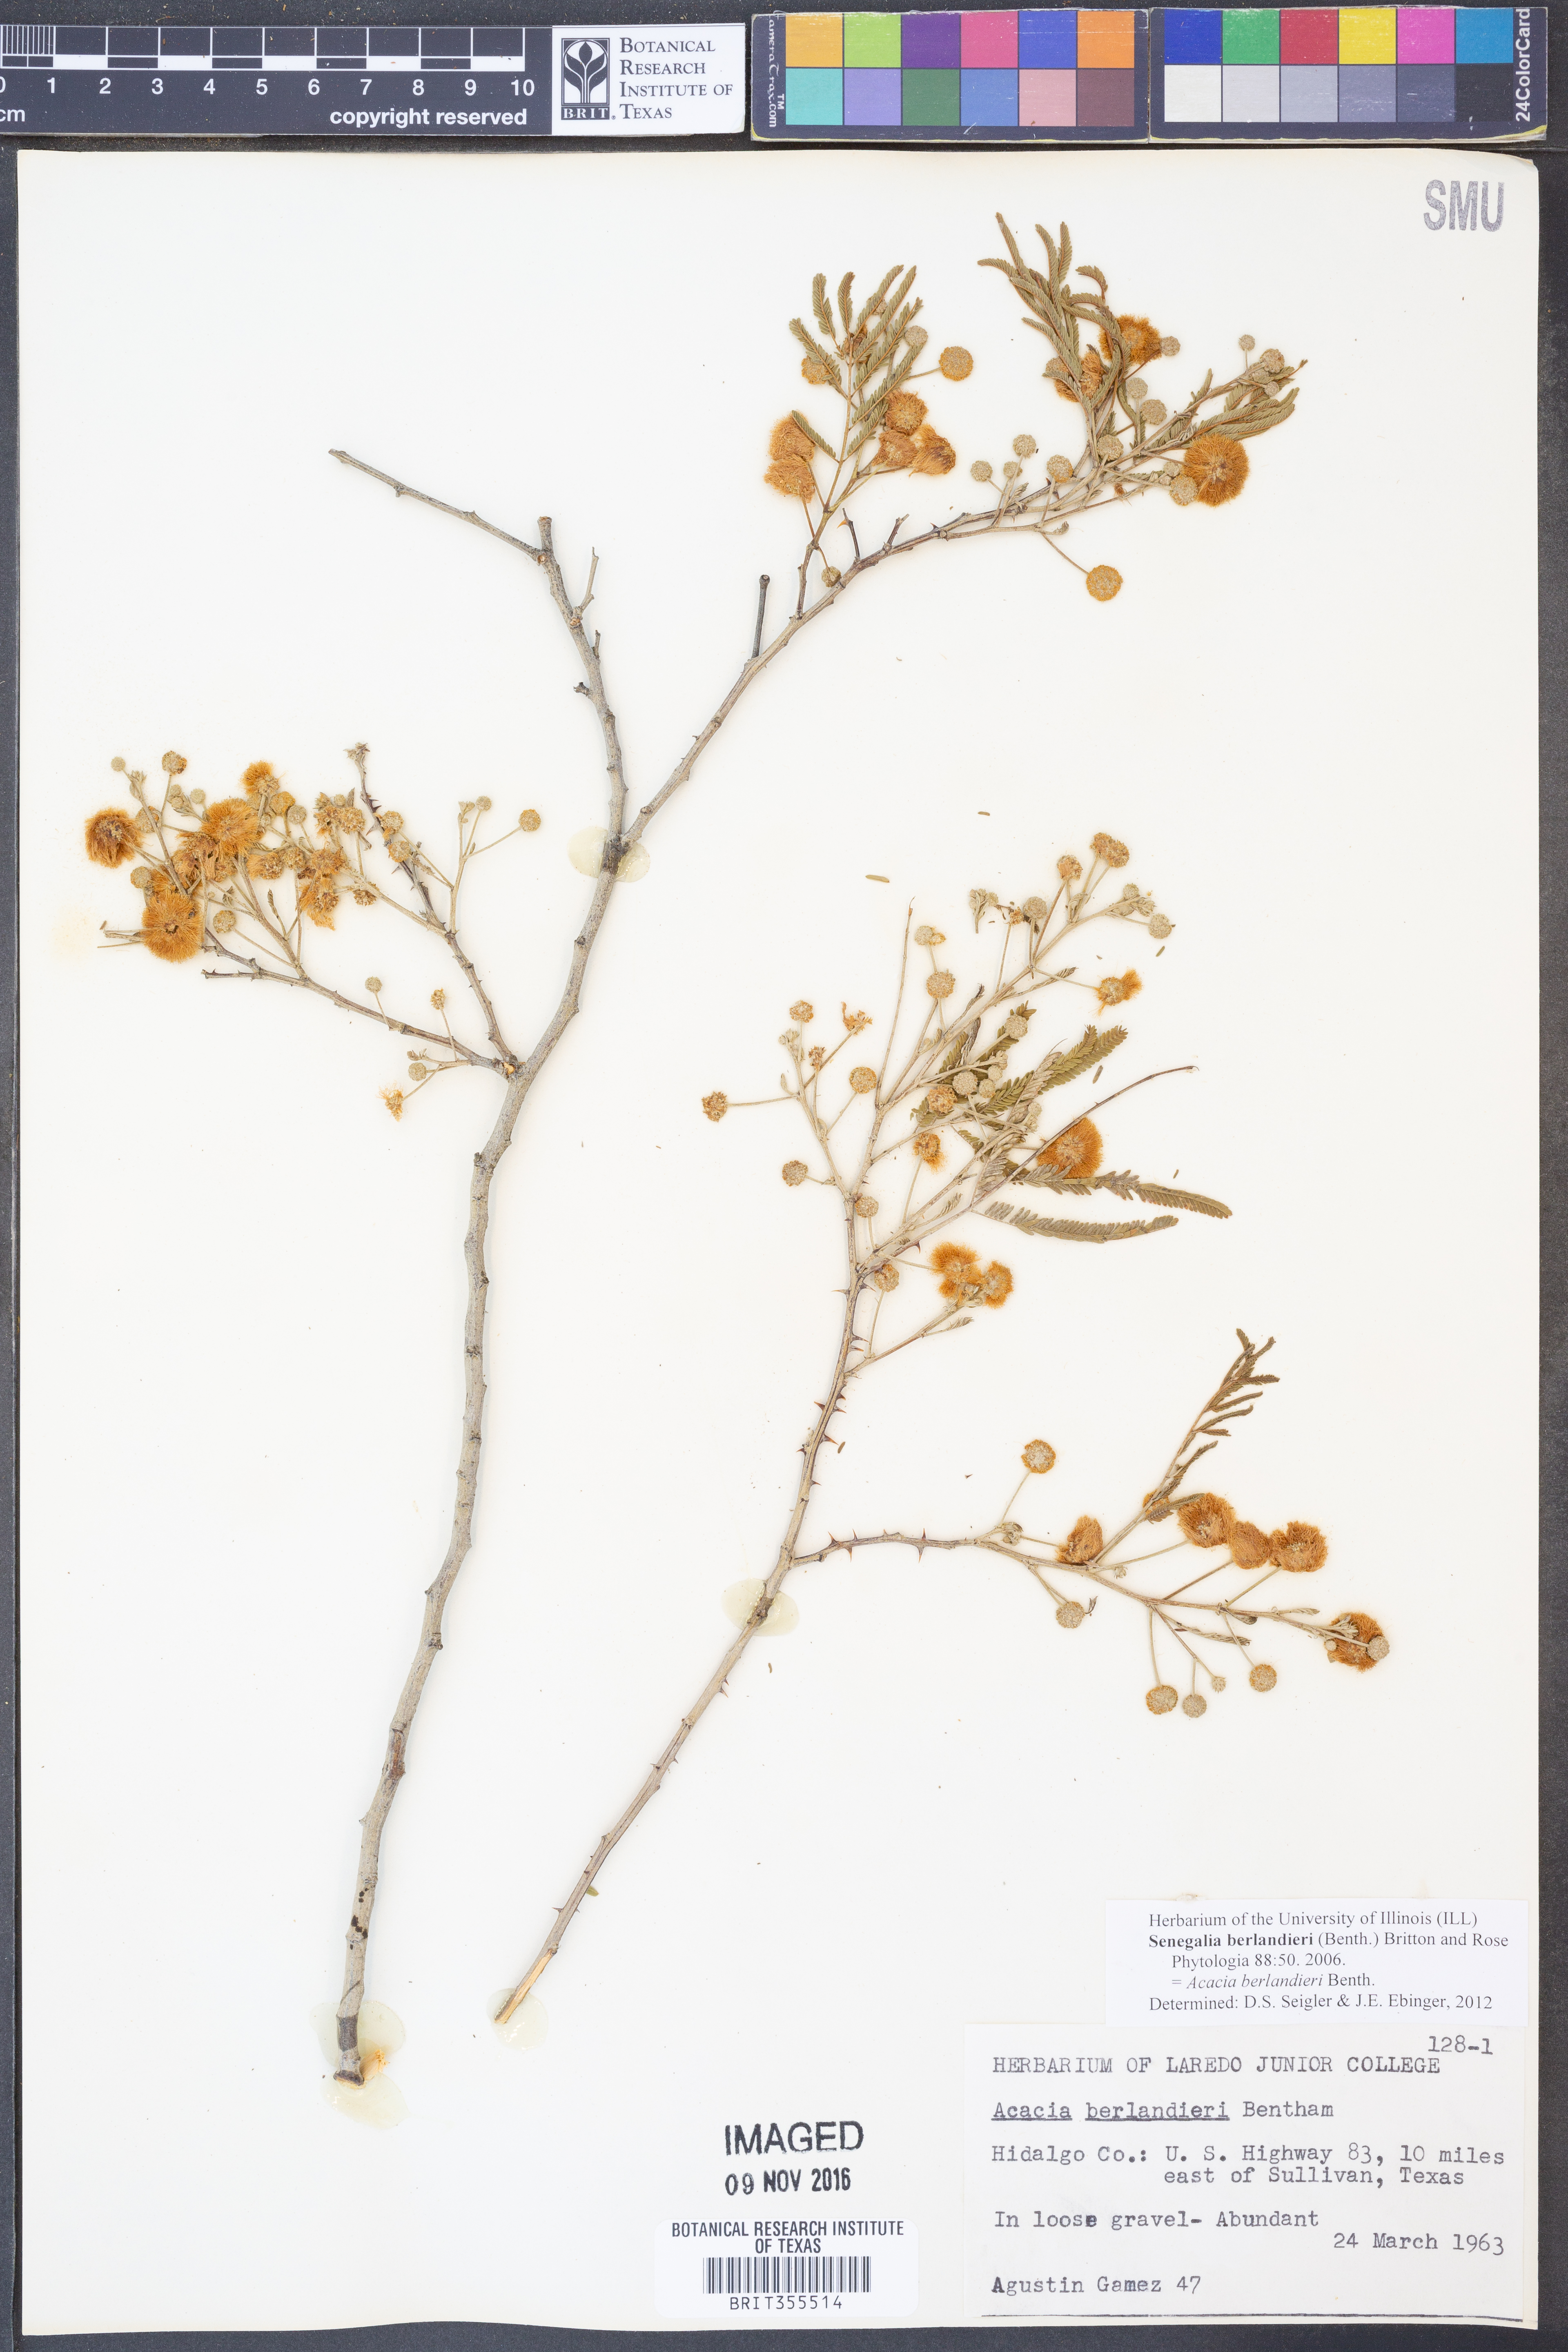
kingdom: Plantae
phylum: Tracheophyta
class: Magnoliopsida
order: Fabales
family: Fabaceae
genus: Senegalia
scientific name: Senegalia berlandieri
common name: Berlandier acacia
